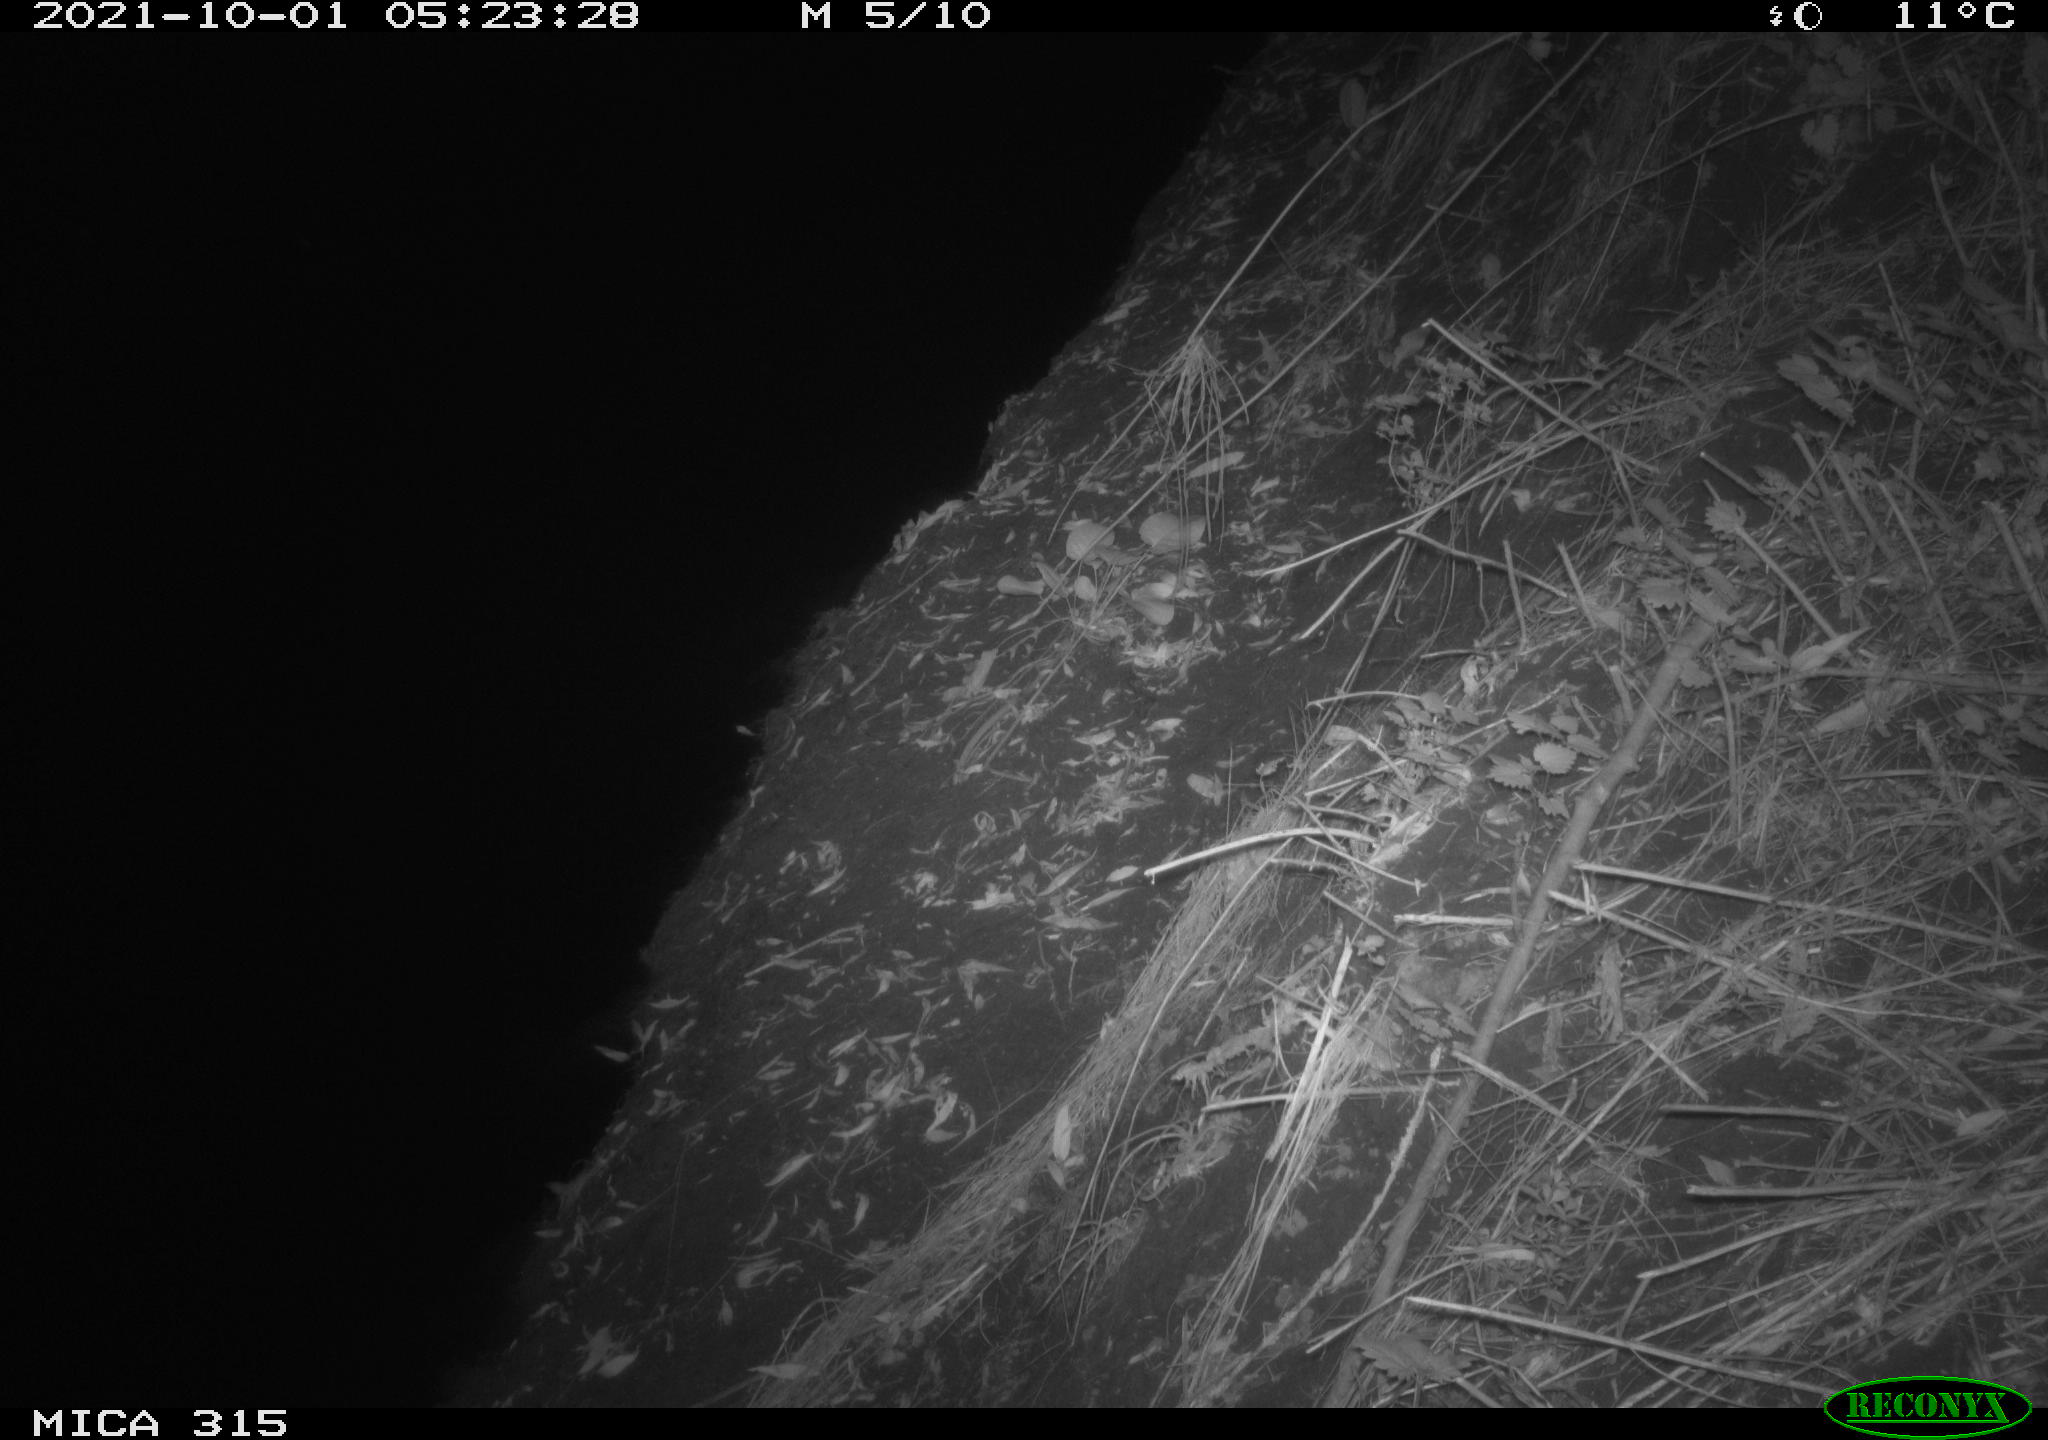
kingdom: Animalia
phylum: Chordata
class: Mammalia
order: Rodentia
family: Muridae
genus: Rattus
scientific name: Rattus norvegicus
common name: Brown rat
